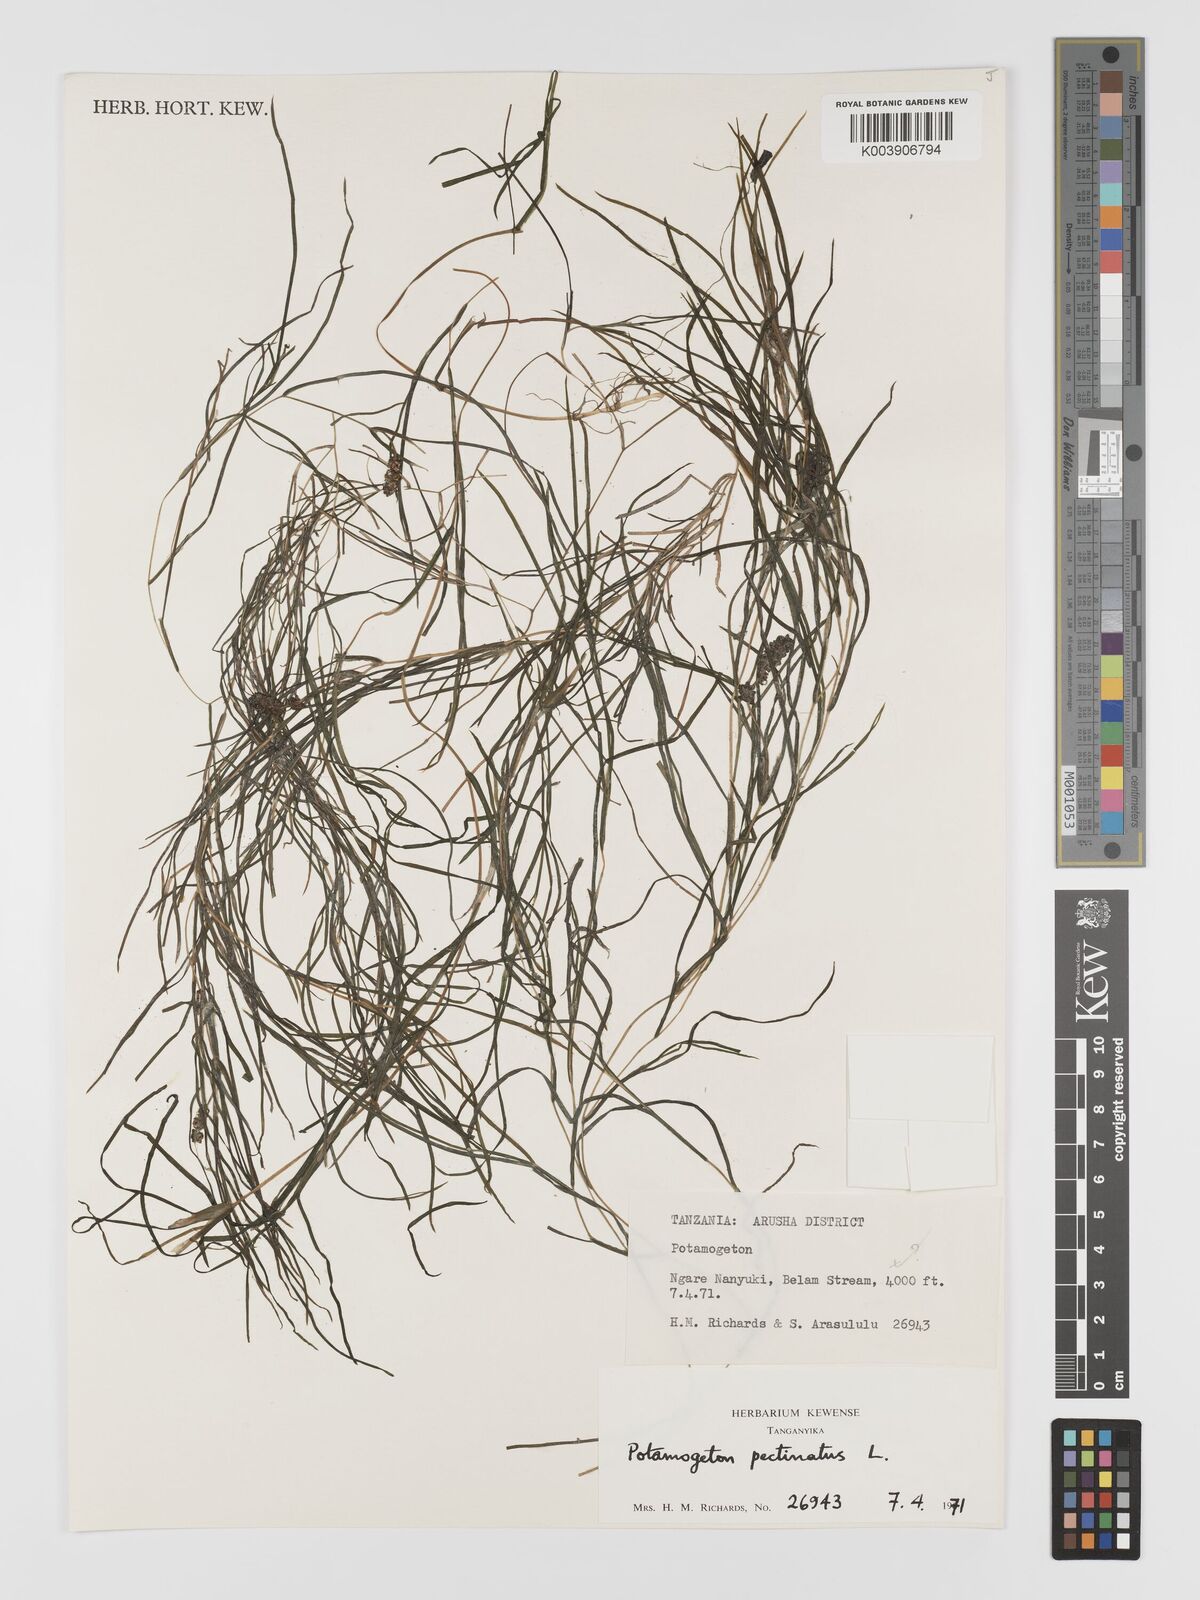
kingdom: Plantae
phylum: Tracheophyta
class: Liliopsida
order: Alismatales
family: Potamogetonaceae
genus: Stuckenia
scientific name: Stuckenia pectinata
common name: Sago pondweed
